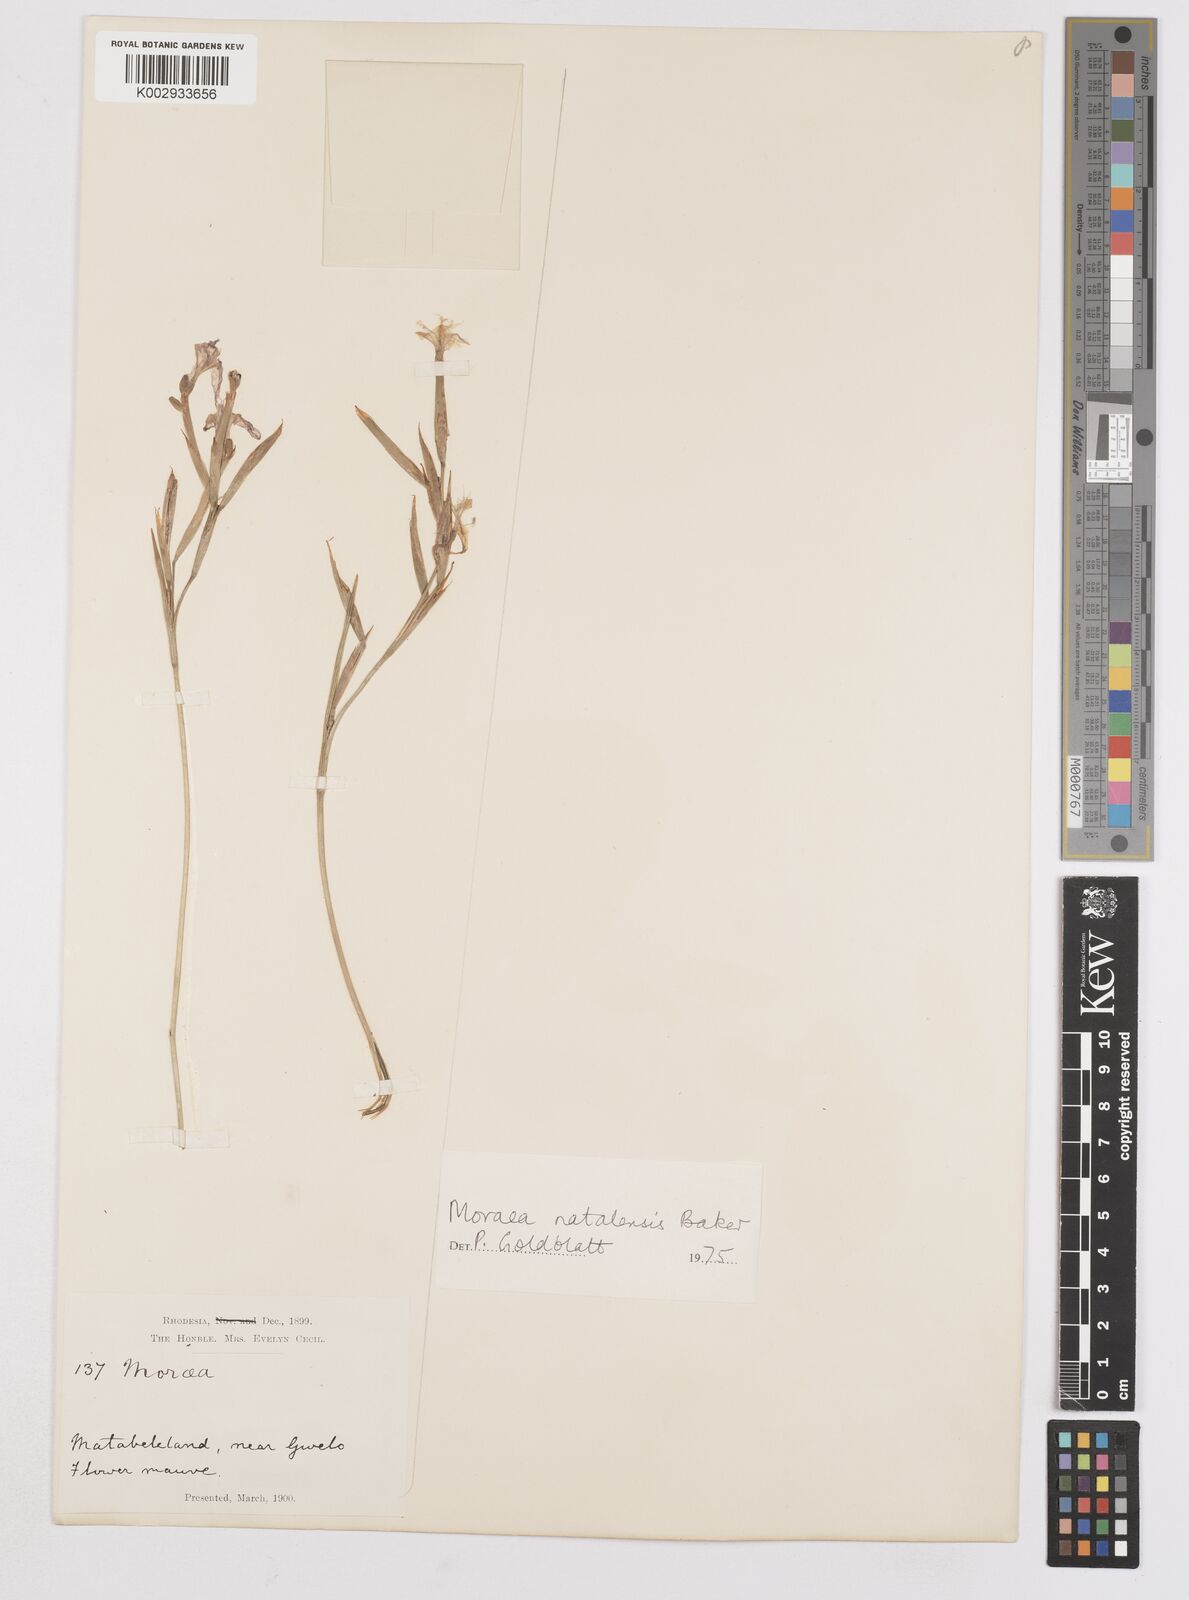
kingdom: Plantae
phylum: Tracheophyta
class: Liliopsida
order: Asparagales
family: Iridaceae
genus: Moraea
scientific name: Moraea natalensis
